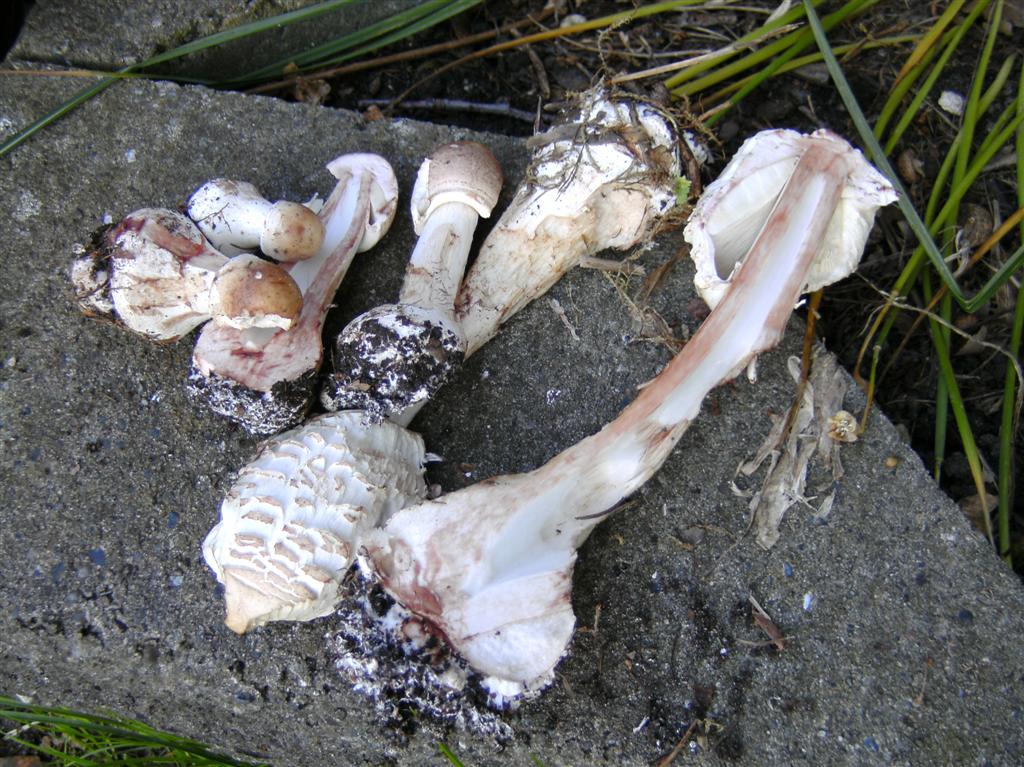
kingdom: Fungi
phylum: Basidiomycota
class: Agaricomycetes
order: Agaricales
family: Agaricaceae
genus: Chlorophyllum
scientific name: Chlorophyllum brunneum
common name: giftig rabarberhat
